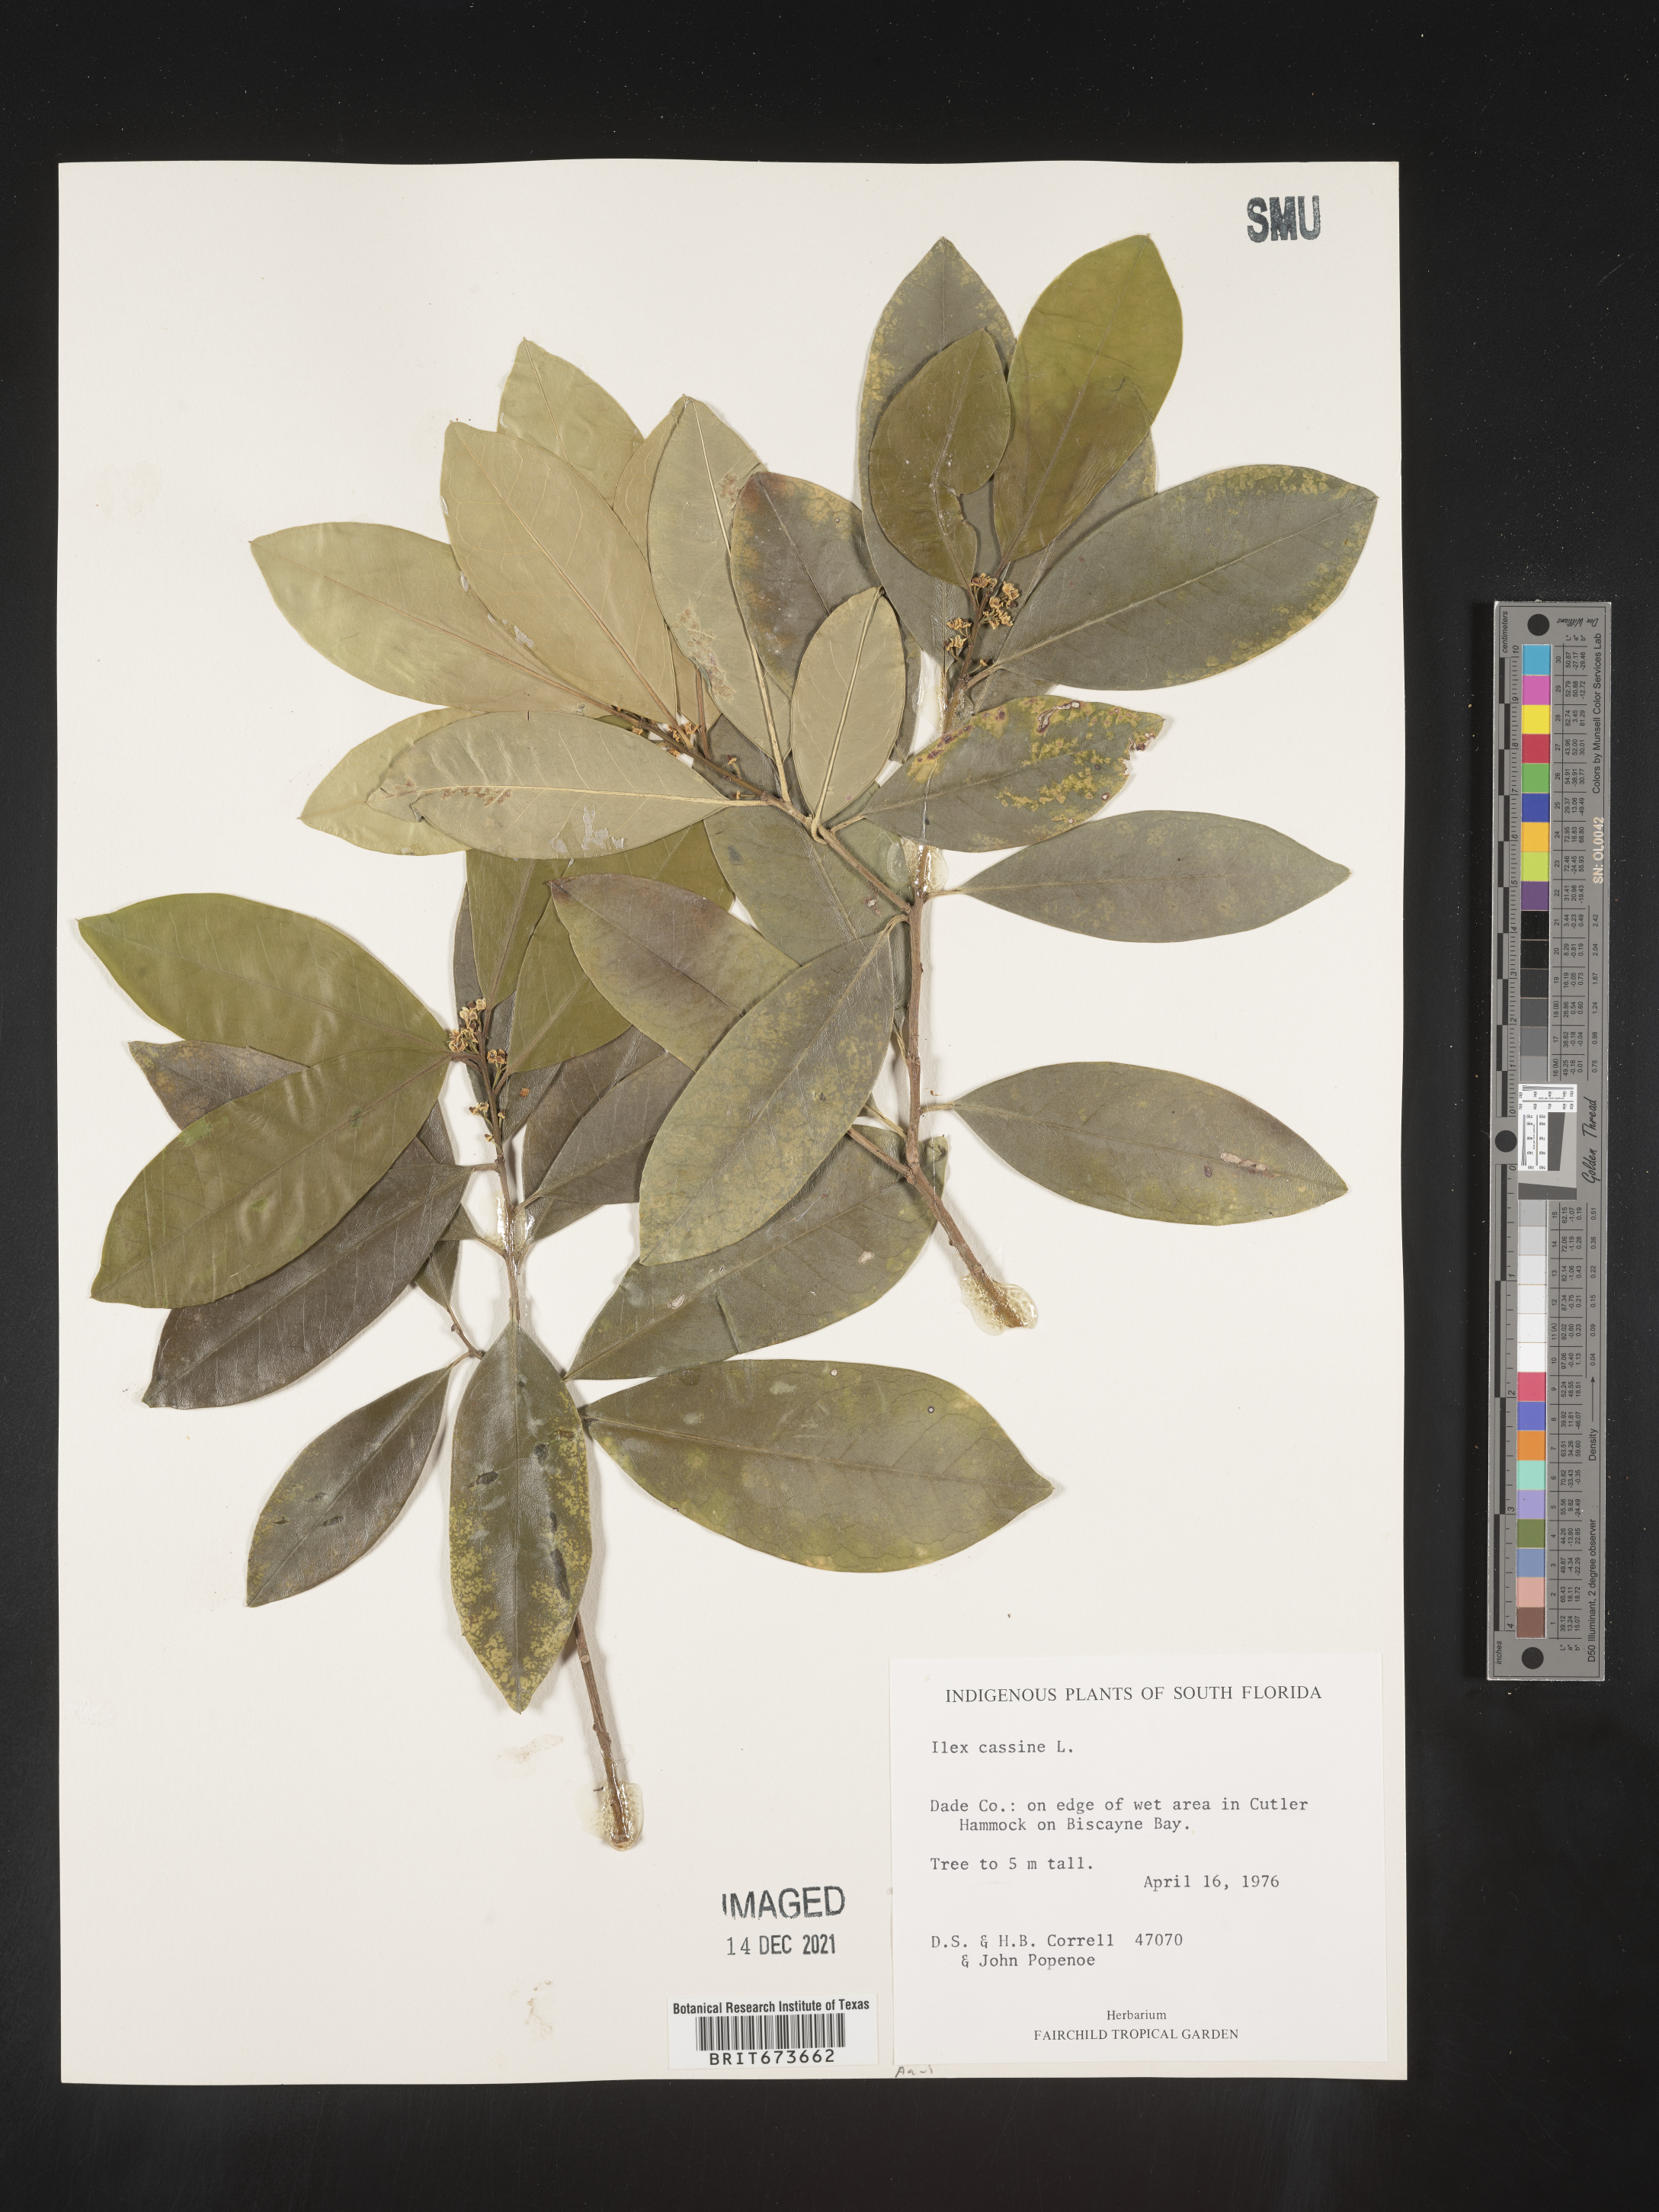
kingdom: Plantae
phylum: Tracheophyta
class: Magnoliopsida
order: Aquifoliales
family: Aquifoliaceae
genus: Ilex
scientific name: Ilex cassine
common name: Dahoon
